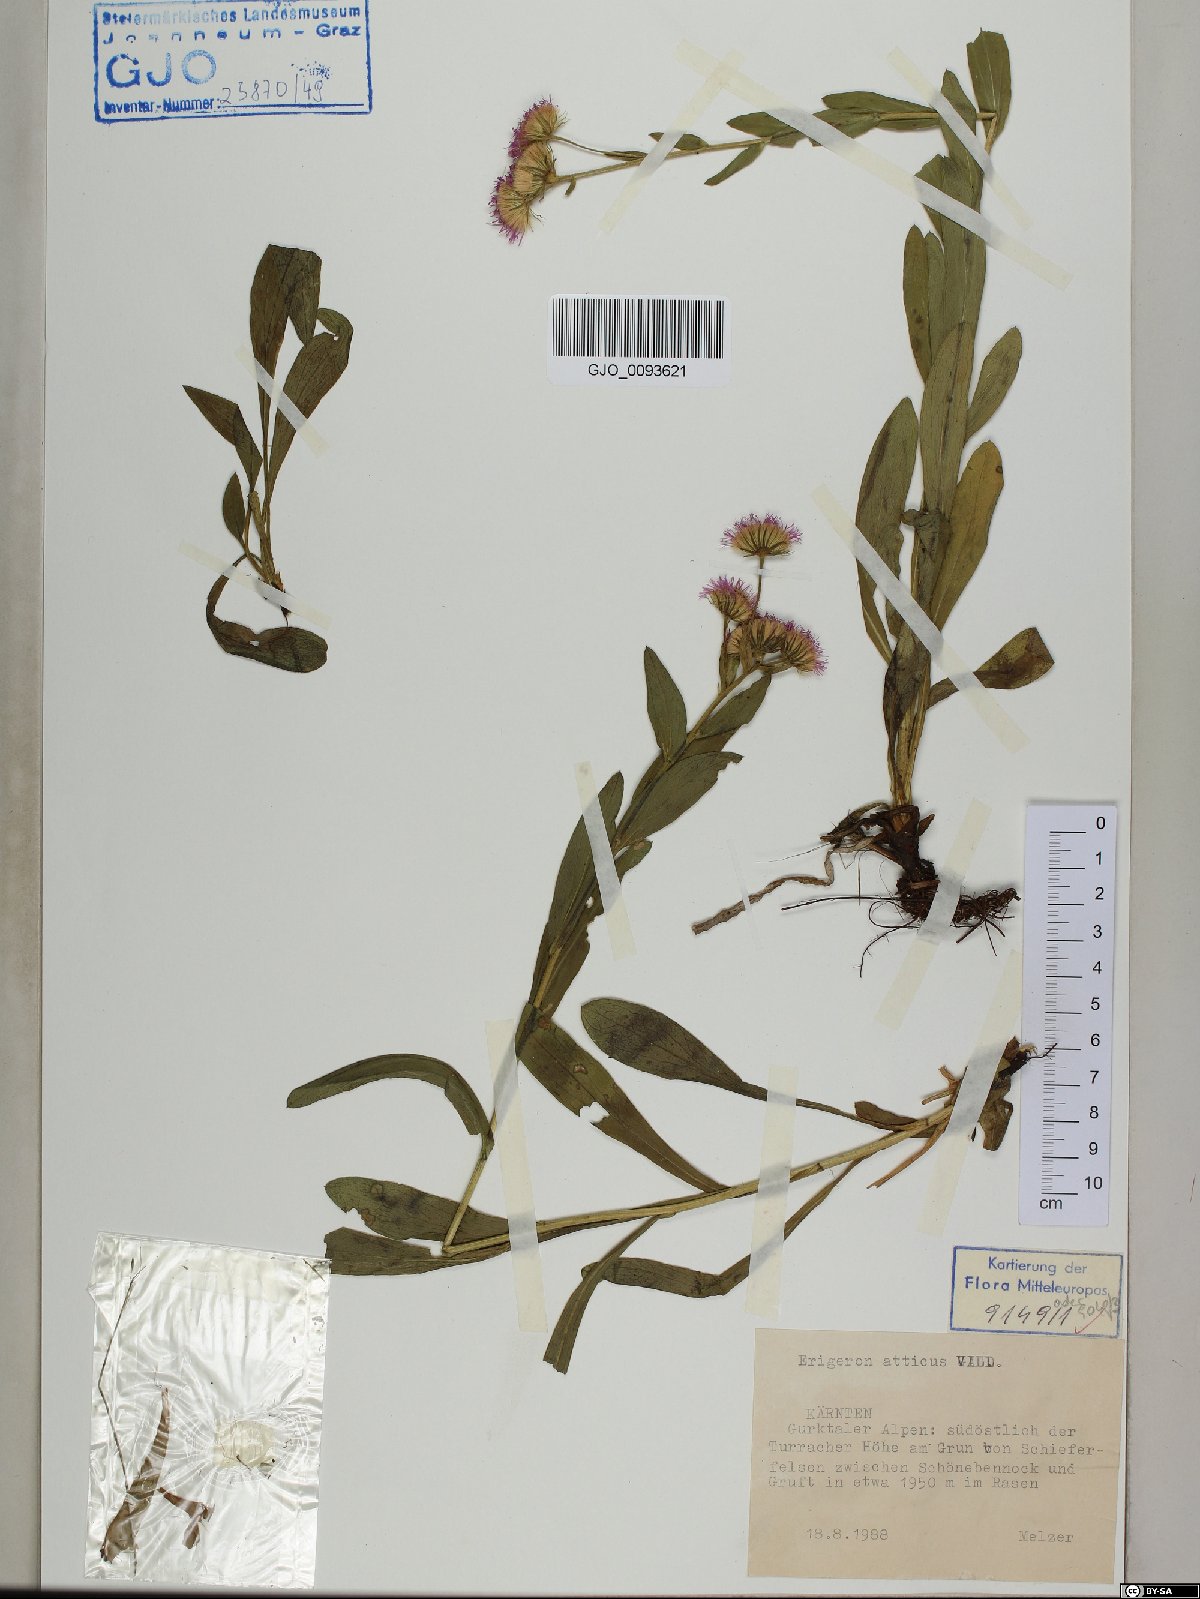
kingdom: Plantae
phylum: Tracheophyta
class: Magnoliopsida
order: Asterales
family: Asteraceae
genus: Erigeron
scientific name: Erigeron atticus
